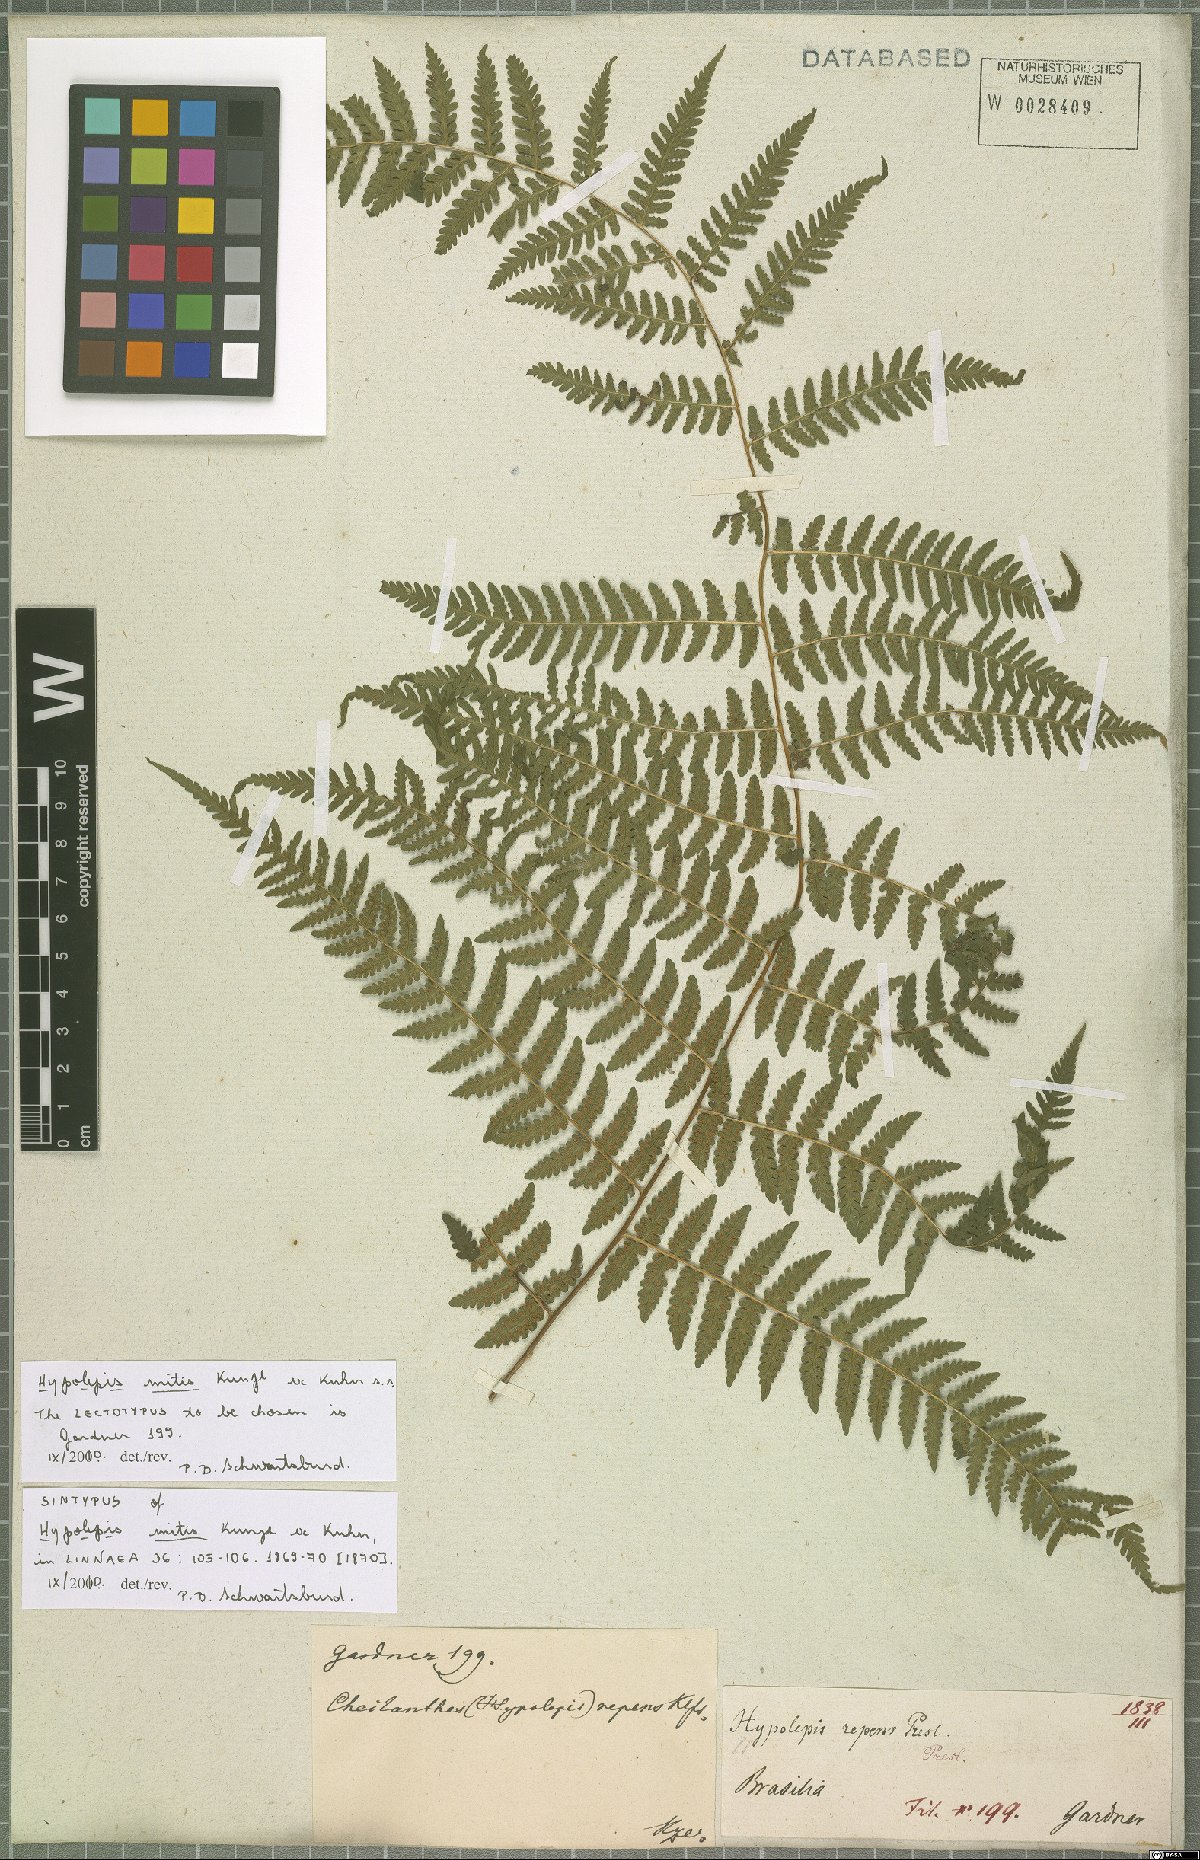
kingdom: Plantae
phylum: Tracheophyta
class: Polypodiopsida
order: Polypodiales
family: Dennstaedtiaceae
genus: Hypolepis
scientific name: Hypolepis mitis
